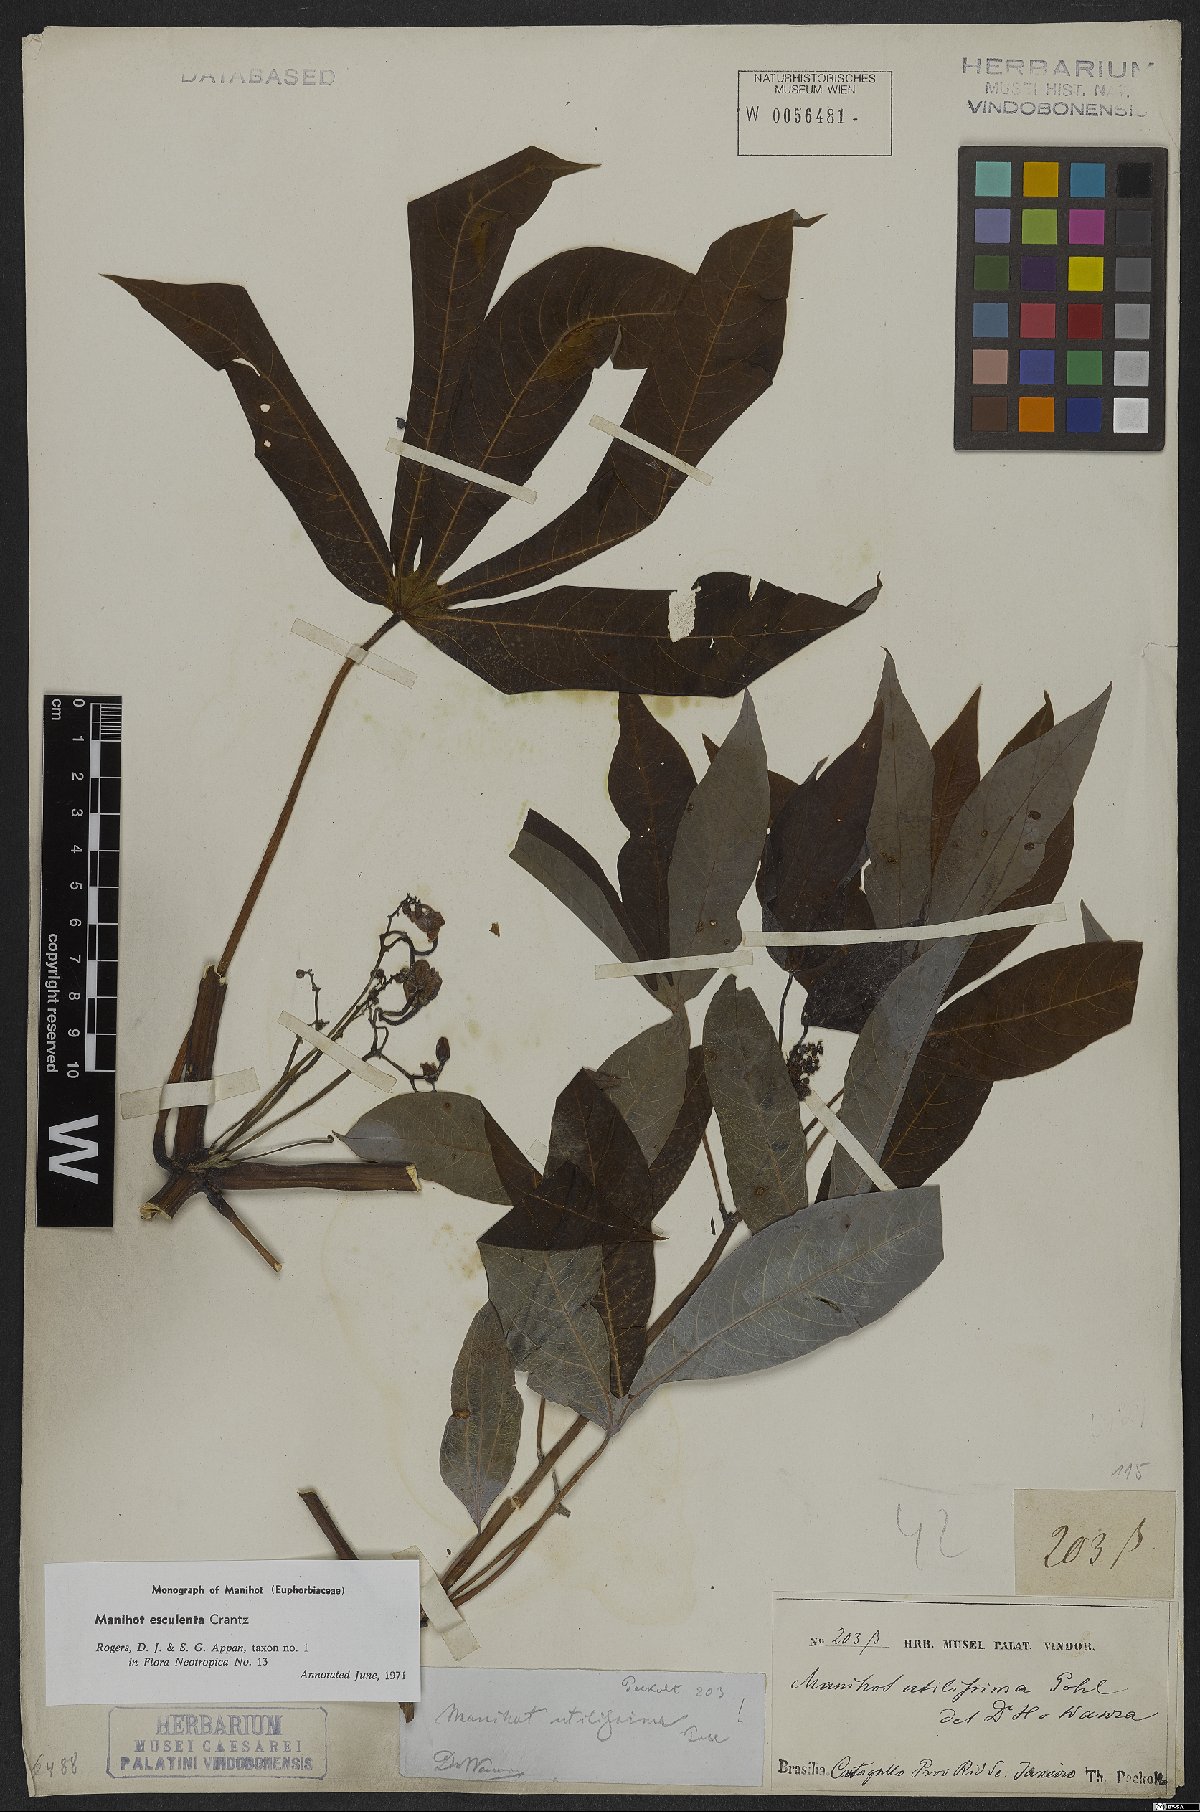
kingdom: Plantae
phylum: Tracheophyta
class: Magnoliopsida
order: Malpighiales
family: Euphorbiaceae
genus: Manihot
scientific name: Manihot esculenta
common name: Cassava
